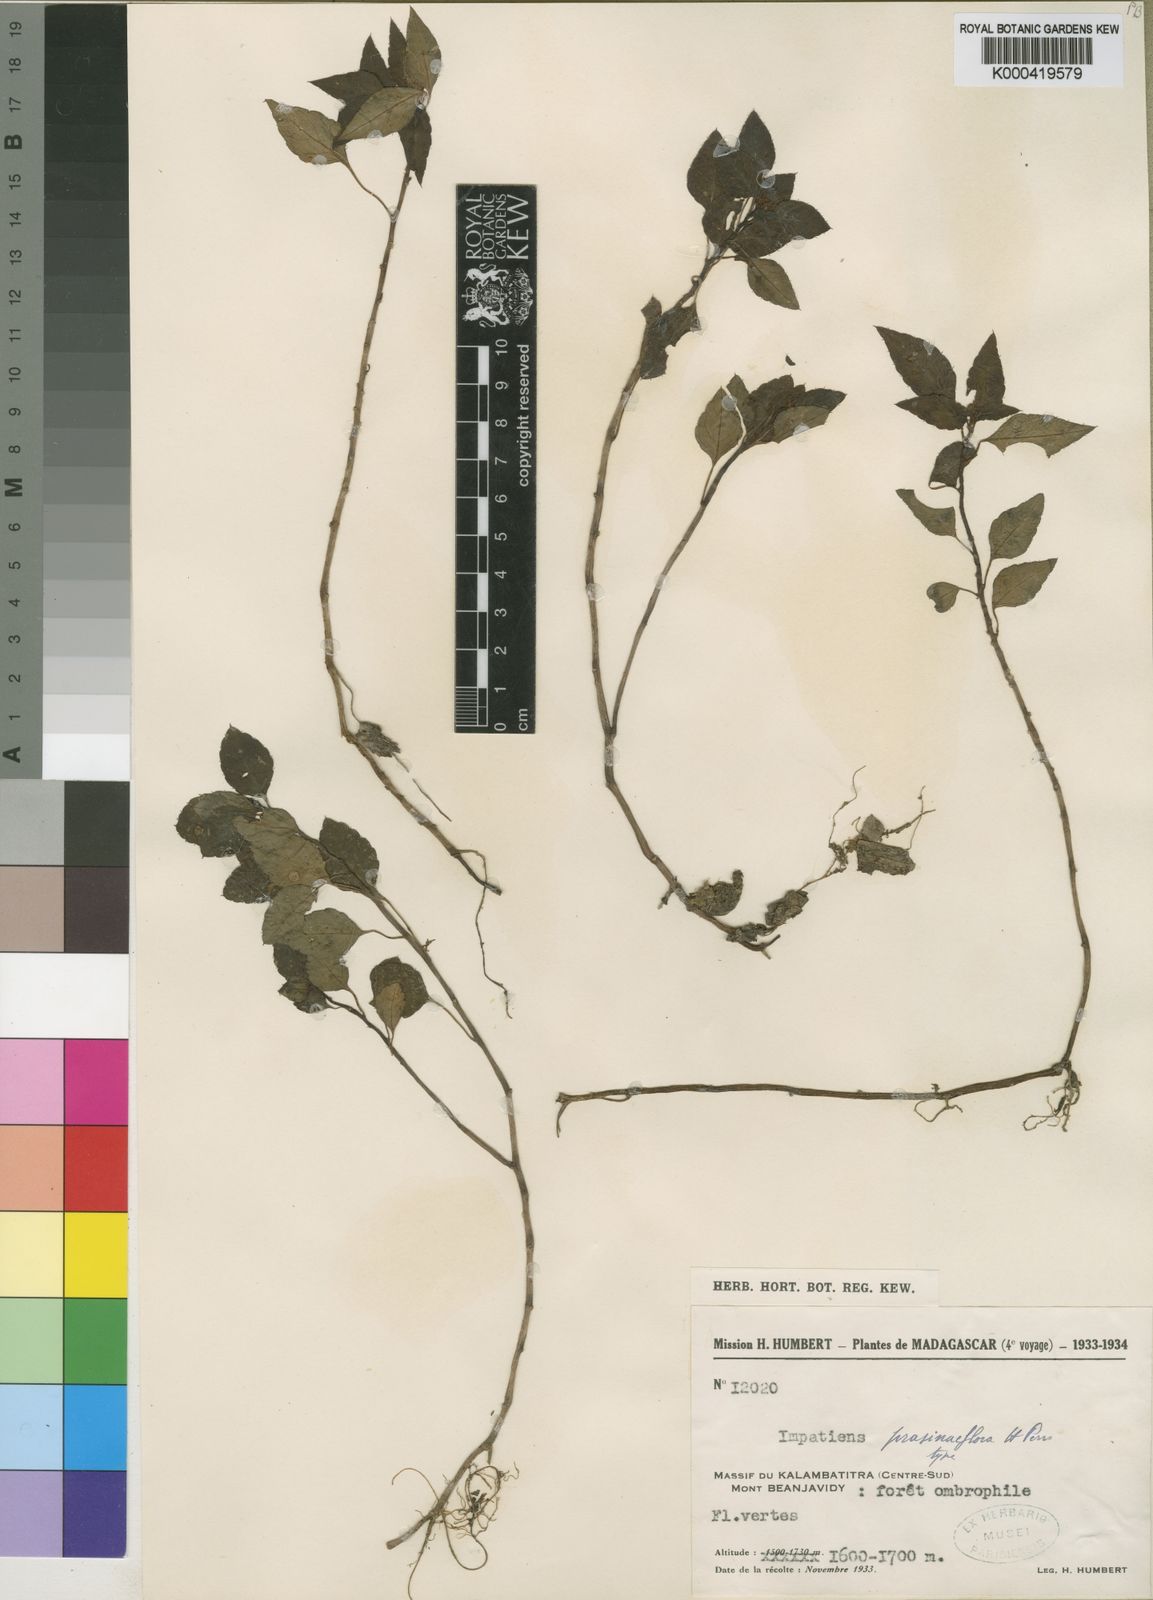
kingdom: Plantae
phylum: Tracheophyta
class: Magnoliopsida
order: Ericales
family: Balsaminaceae
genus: Impatiens
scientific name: Impatiens prasiniflora
